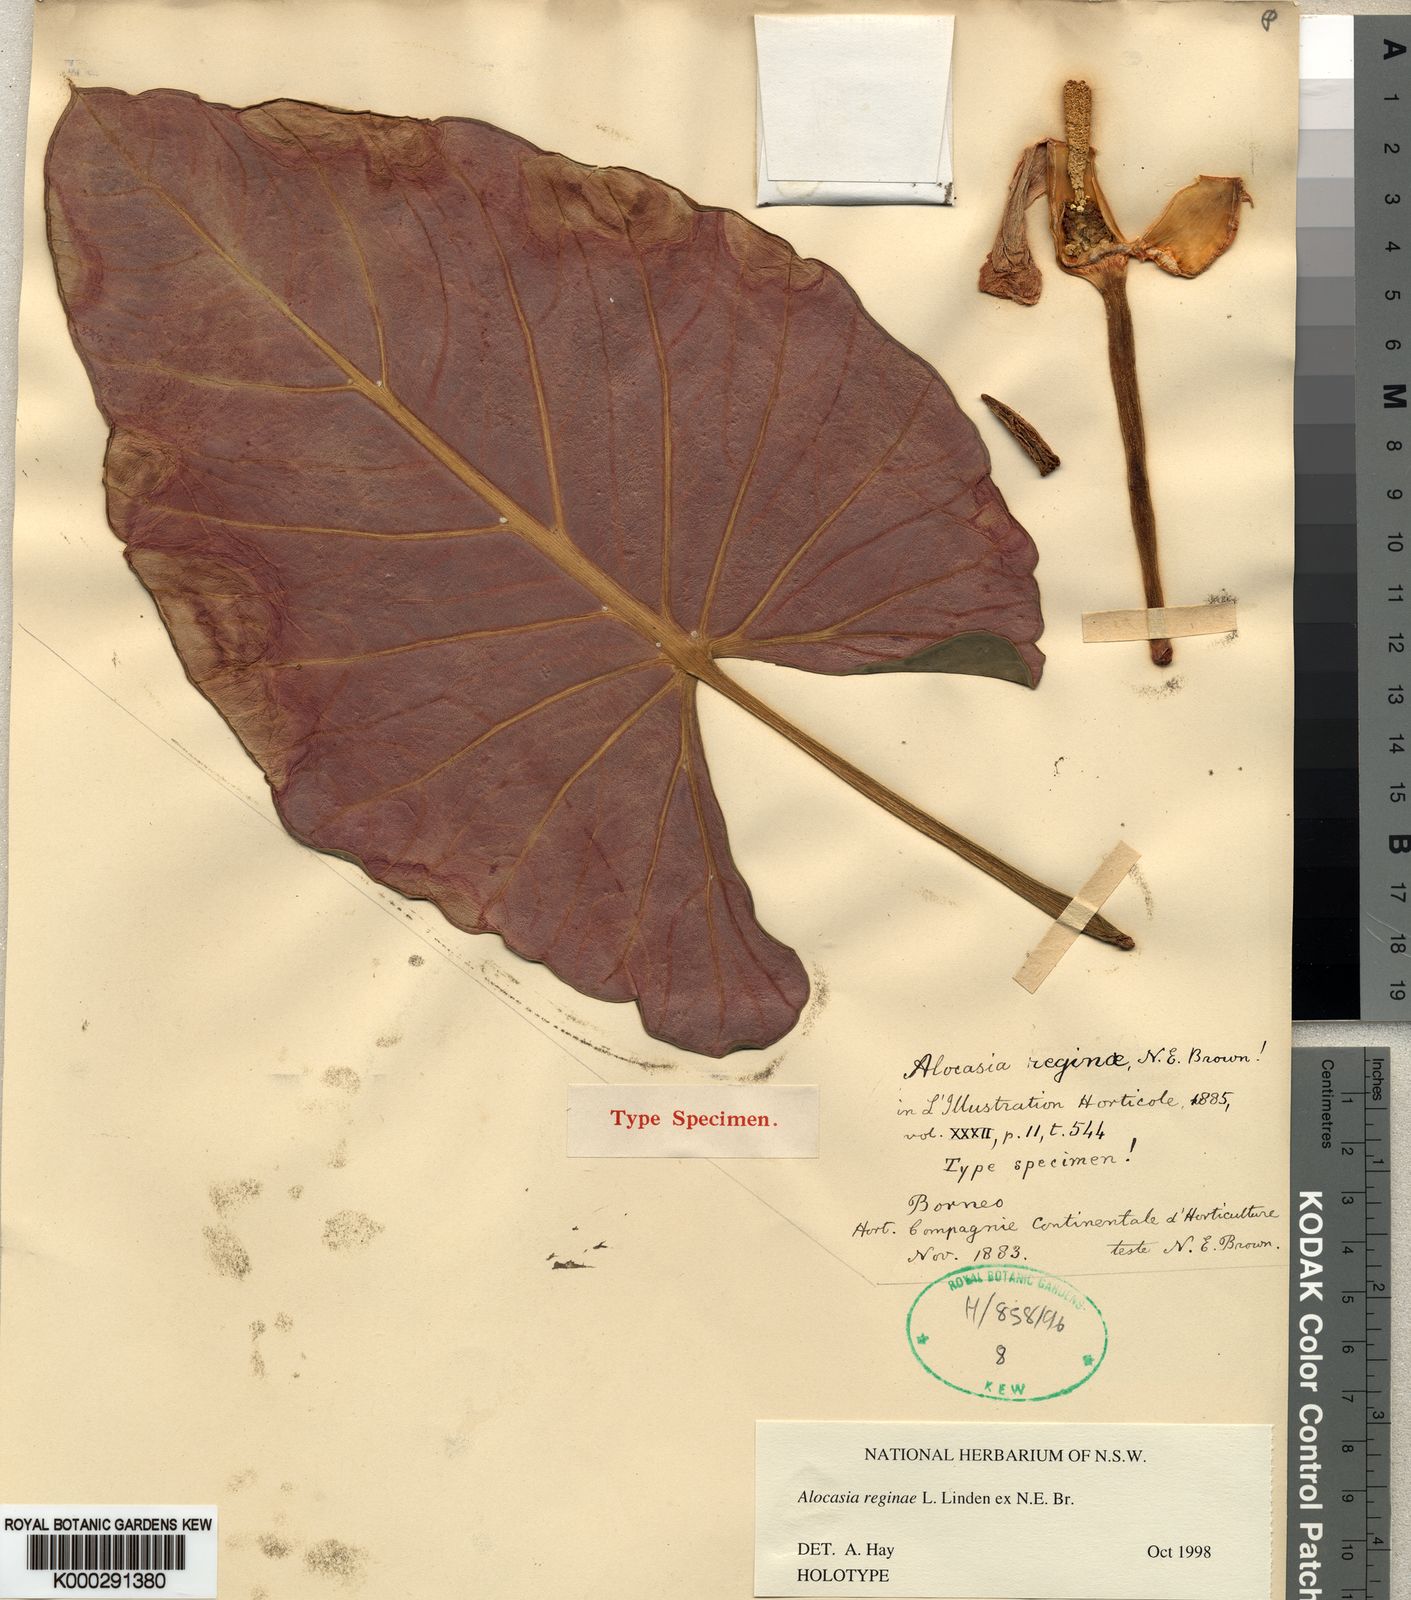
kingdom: Plantae
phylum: Tracheophyta
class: Liliopsida
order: Alismatales
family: Araceae
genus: Alocasia
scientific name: Alocasia reginae
